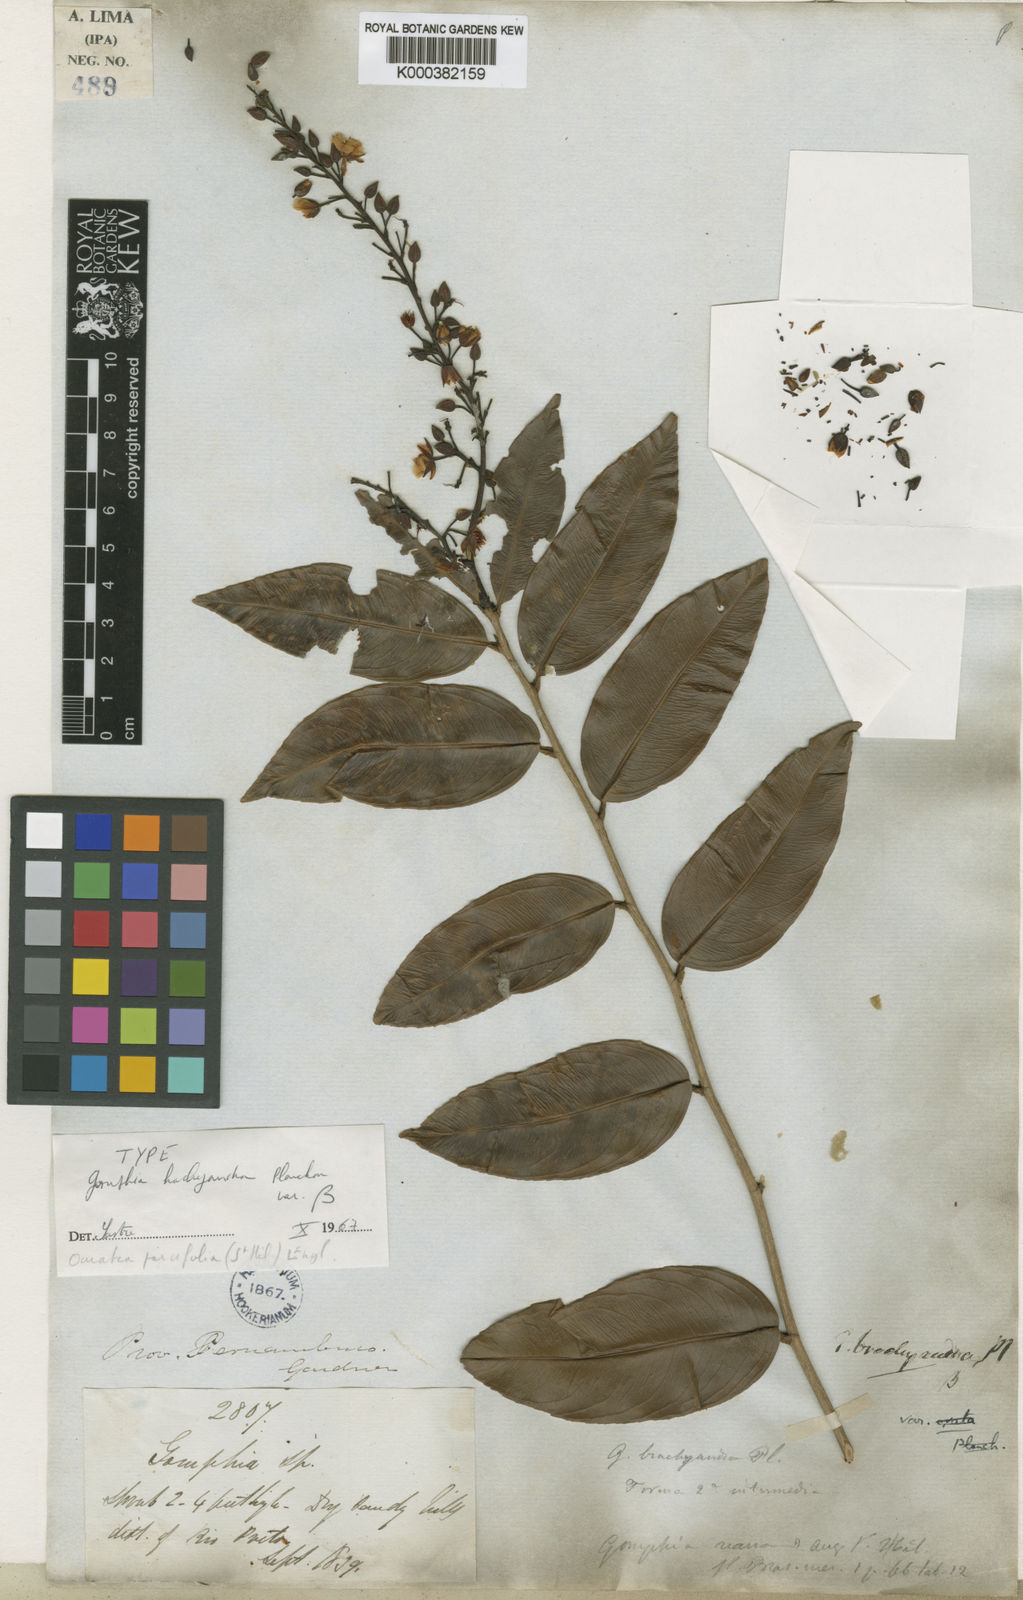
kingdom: Plantae
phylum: Tracheophyta
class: Magnoliopsida
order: Malpighiales
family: Ochnaceae
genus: Ouratea
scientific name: Ouratea parvifolia
